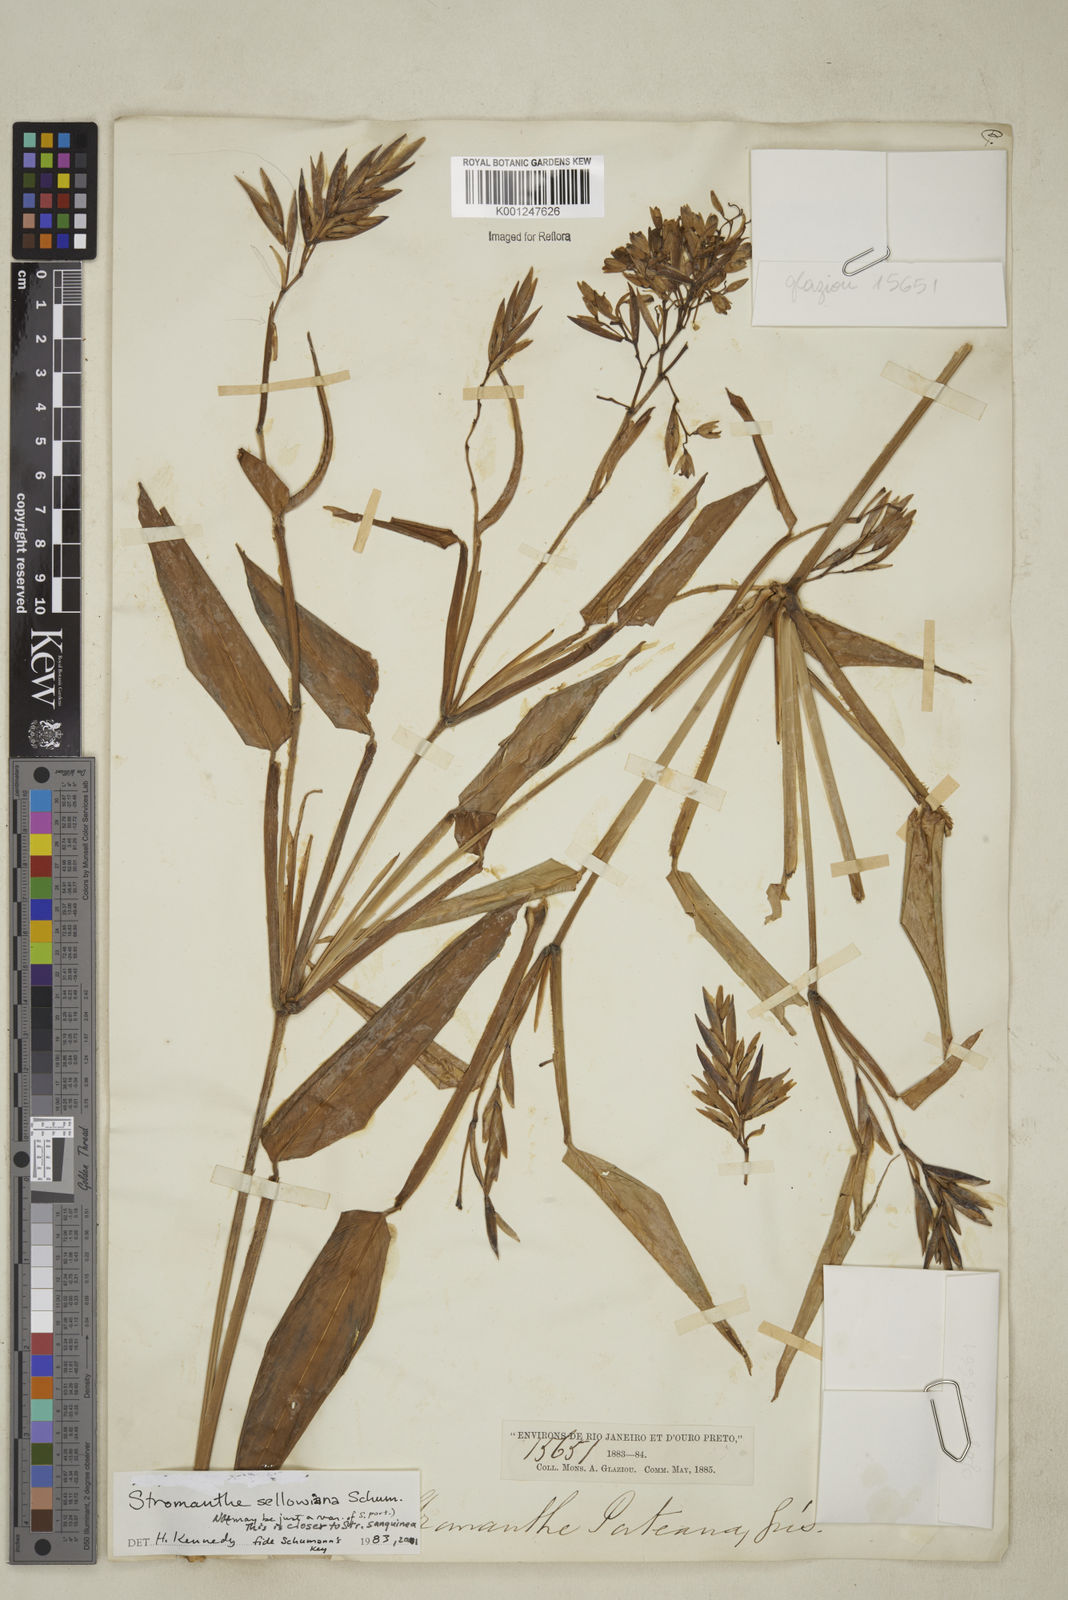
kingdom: Plantae
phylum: Tracheophyta
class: Liliopsida
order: Zingiberales
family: Marantaceae
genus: Stromanthe
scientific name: Stromanthe sellowiana
